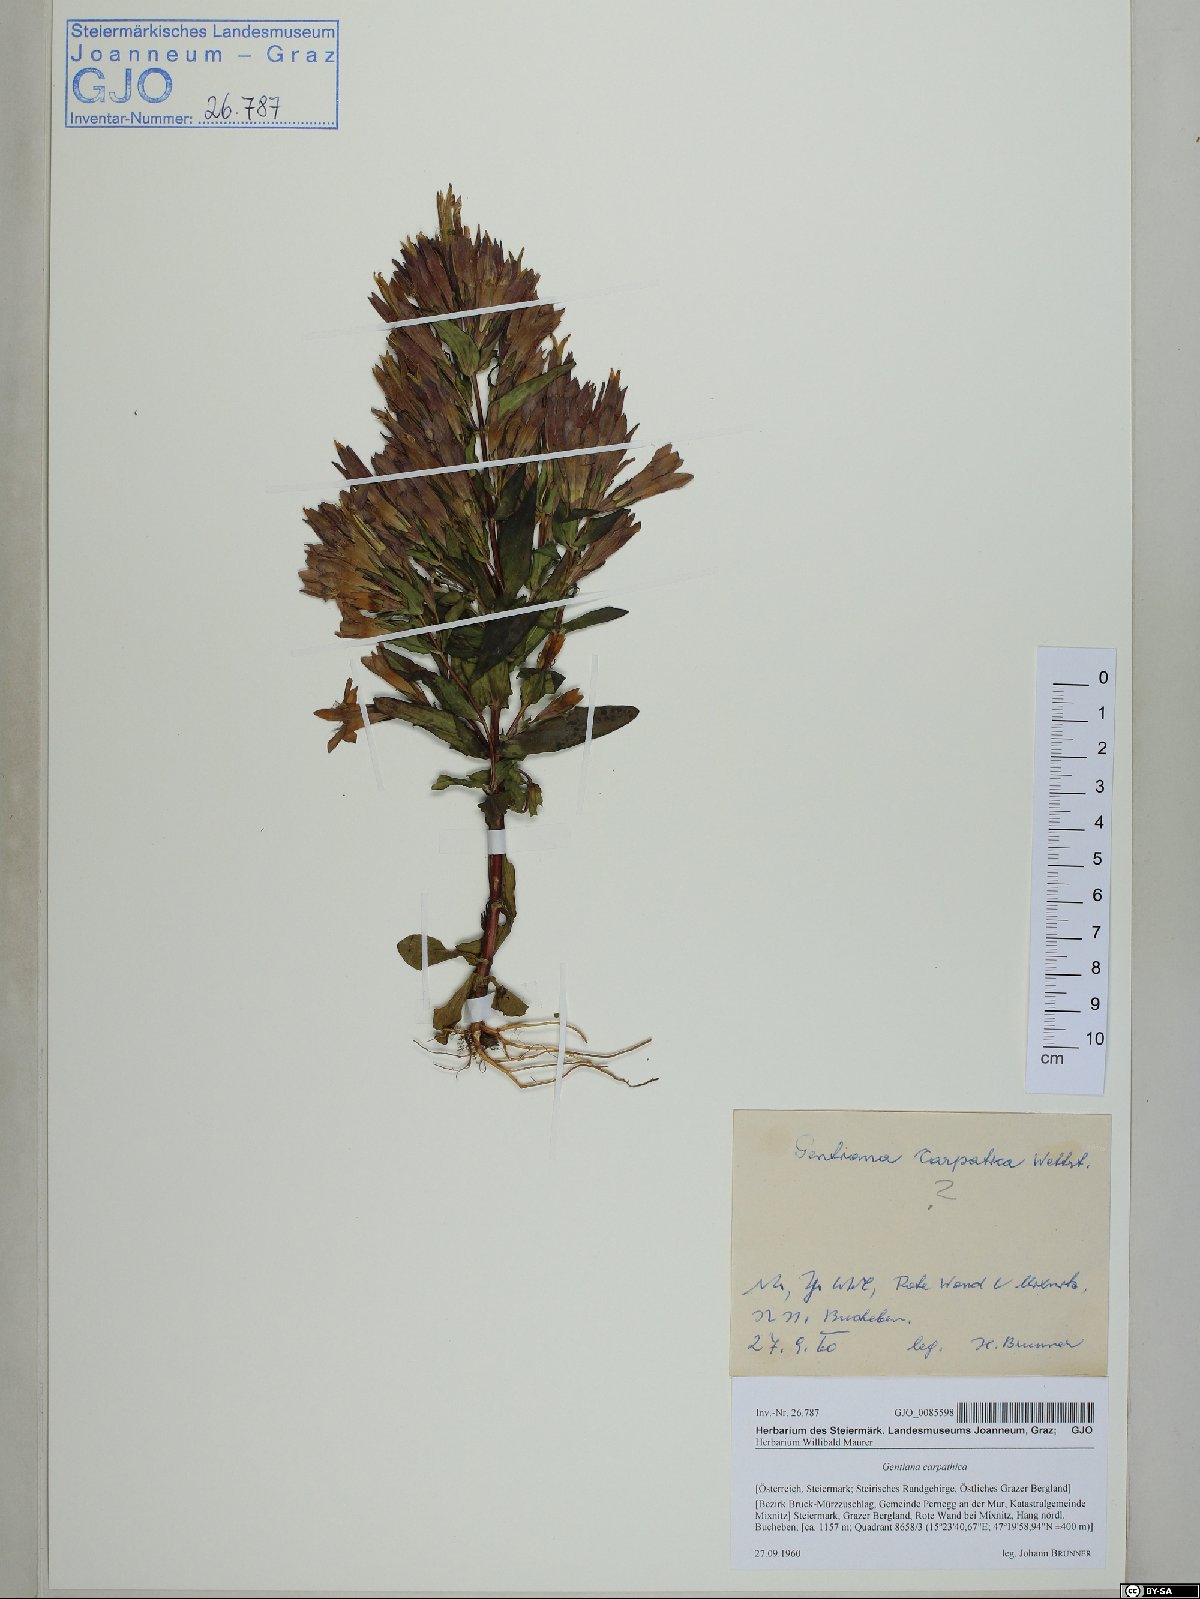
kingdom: Plantae
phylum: Tracheophyta
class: Magnoliopsida
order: Gentianales
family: Gentianaceae
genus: Gentianella
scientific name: Gentianella praecox
